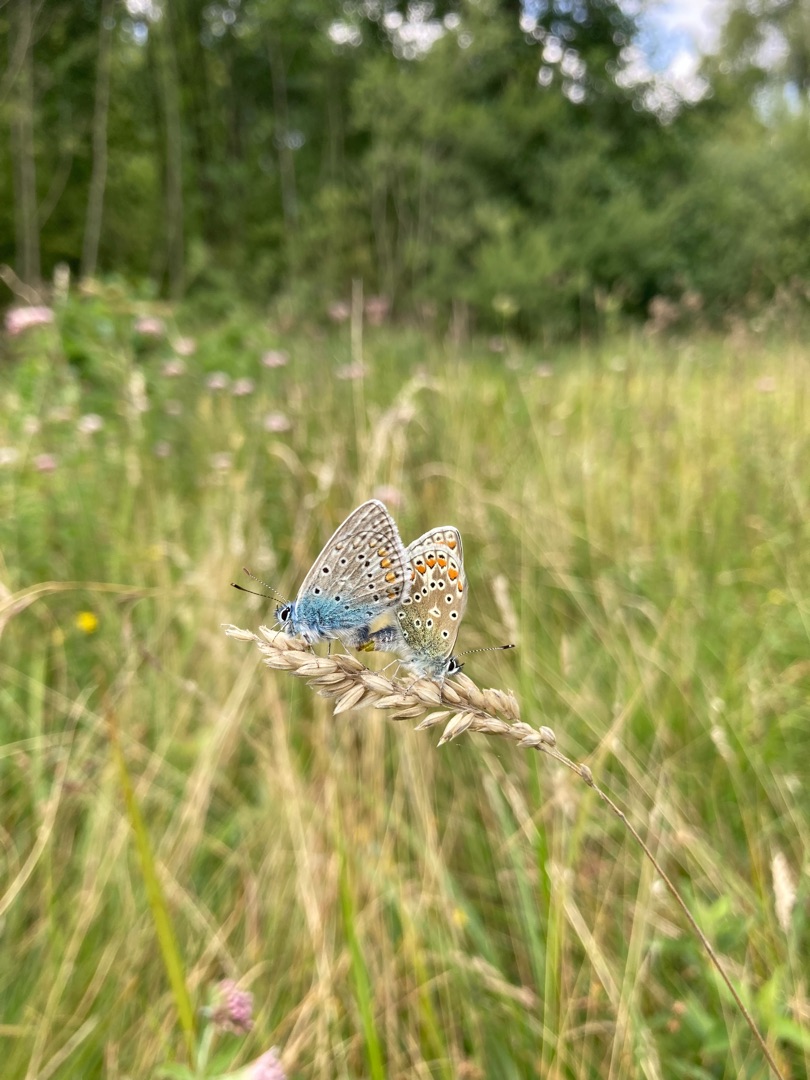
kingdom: Animalia
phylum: Arthropoda
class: Insecta
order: Lepidoptera
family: Lycaenidae
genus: Polyommatus
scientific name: Polyommatus icarus
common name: Almindelig blåfugl
